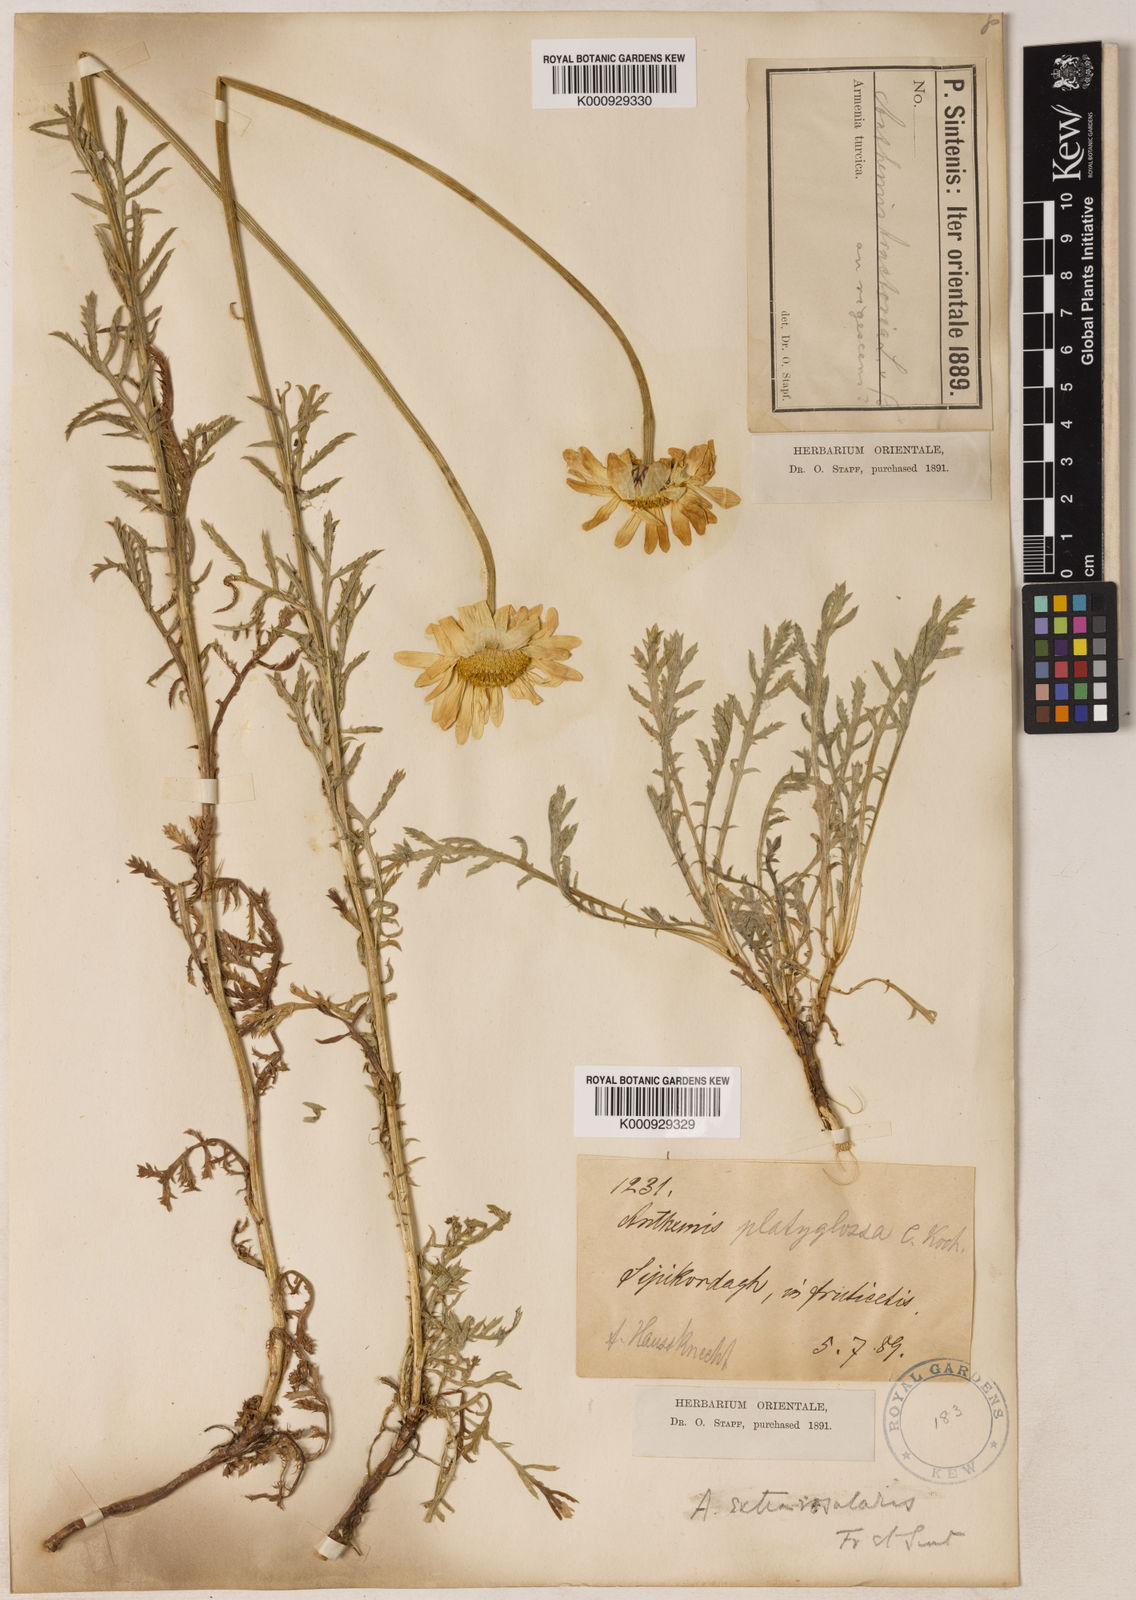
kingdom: Plantae
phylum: Tracheophyta
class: Magnoliopsida
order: Asterales
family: Asteraceae
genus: Cota
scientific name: Cota melanoloma
